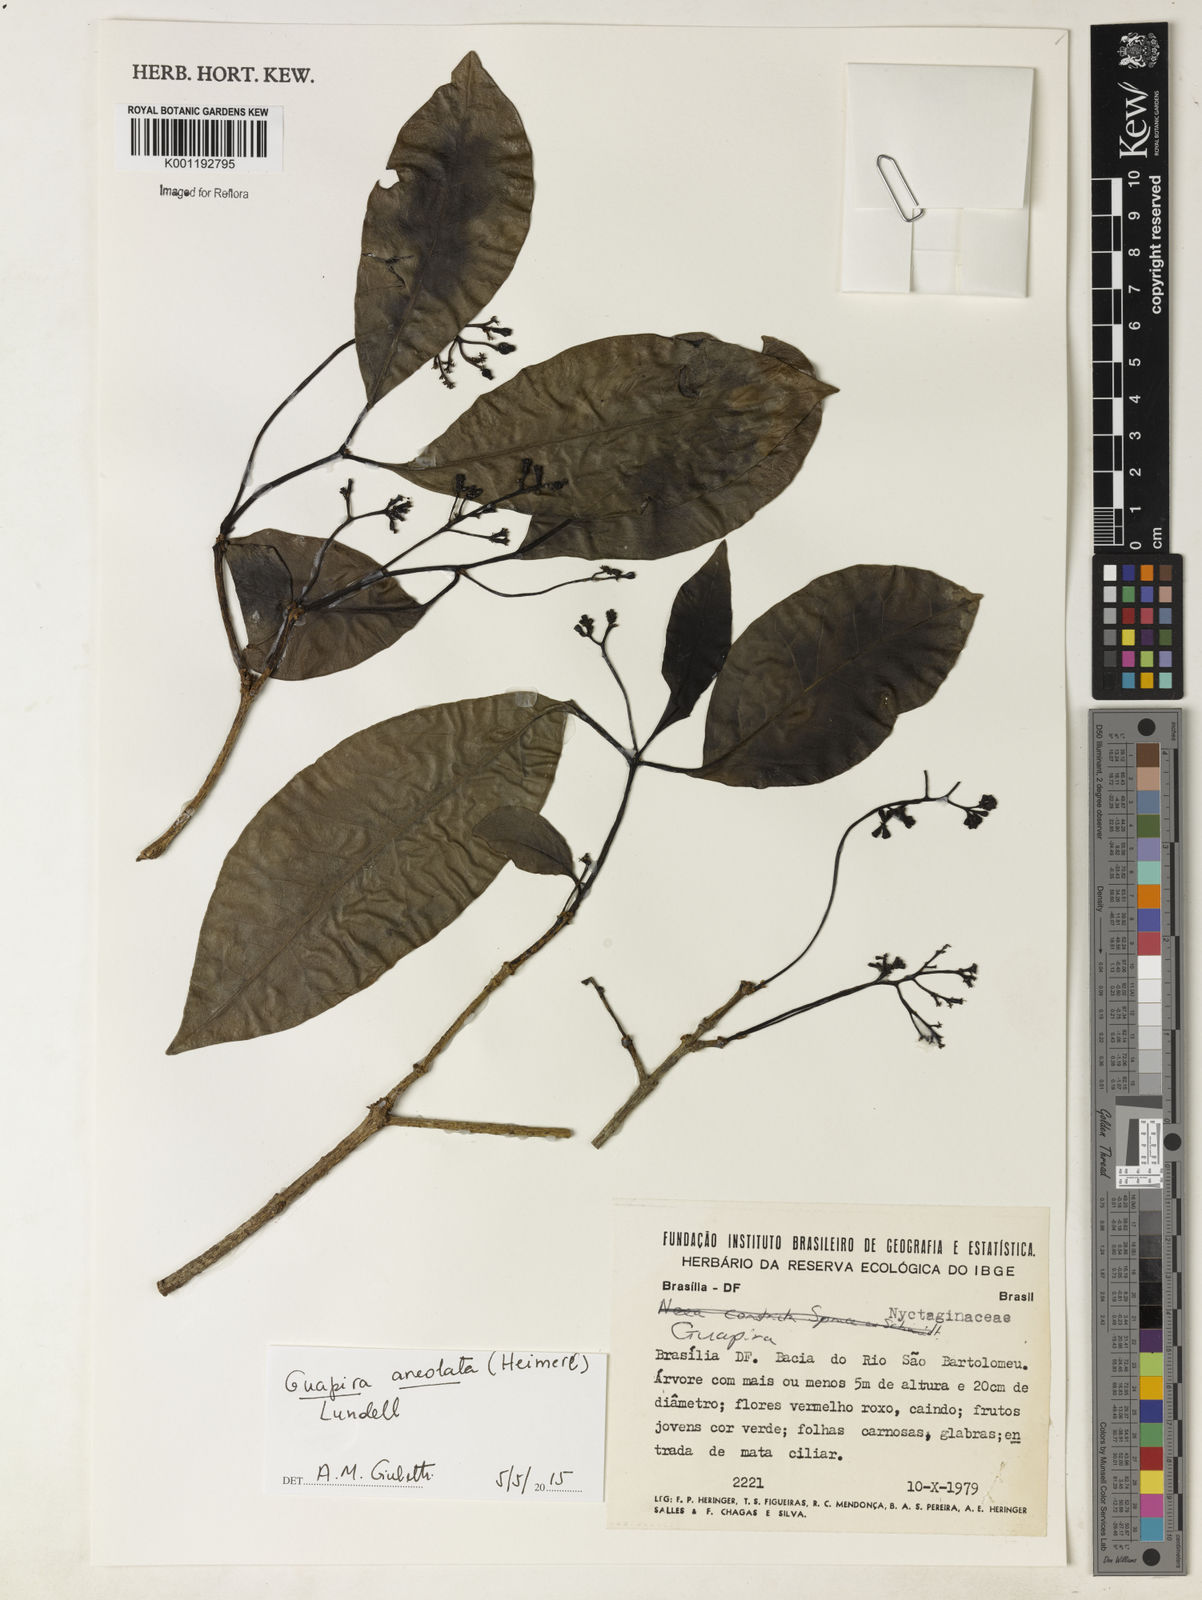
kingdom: Plantae
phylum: Tracheophyta
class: Magnoliopsida
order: Caryophyllales
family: Nyctaginaceae
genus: Guapira
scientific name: Guapira areolata
